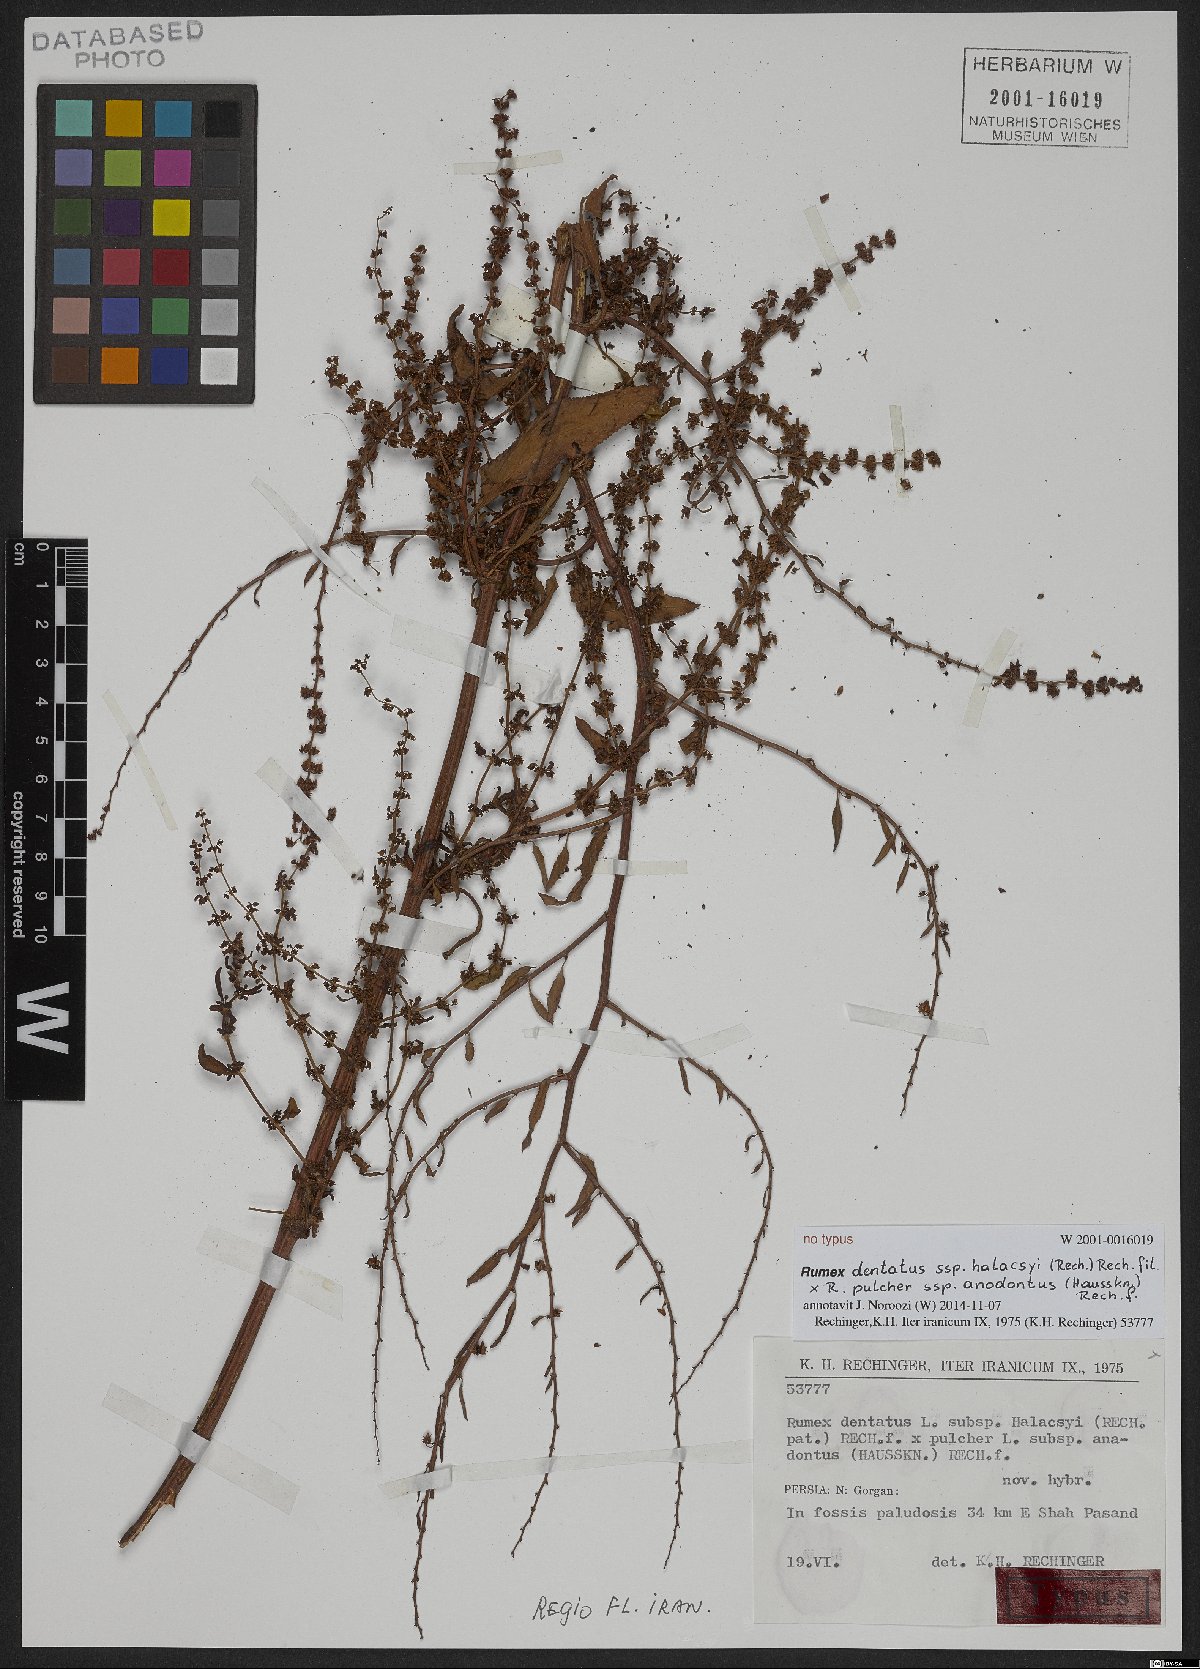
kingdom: Plantae
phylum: Tracheophyta
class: Magnoliopsida
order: Caryophyllales
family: Polygonaceae
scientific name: Polygonaceae
